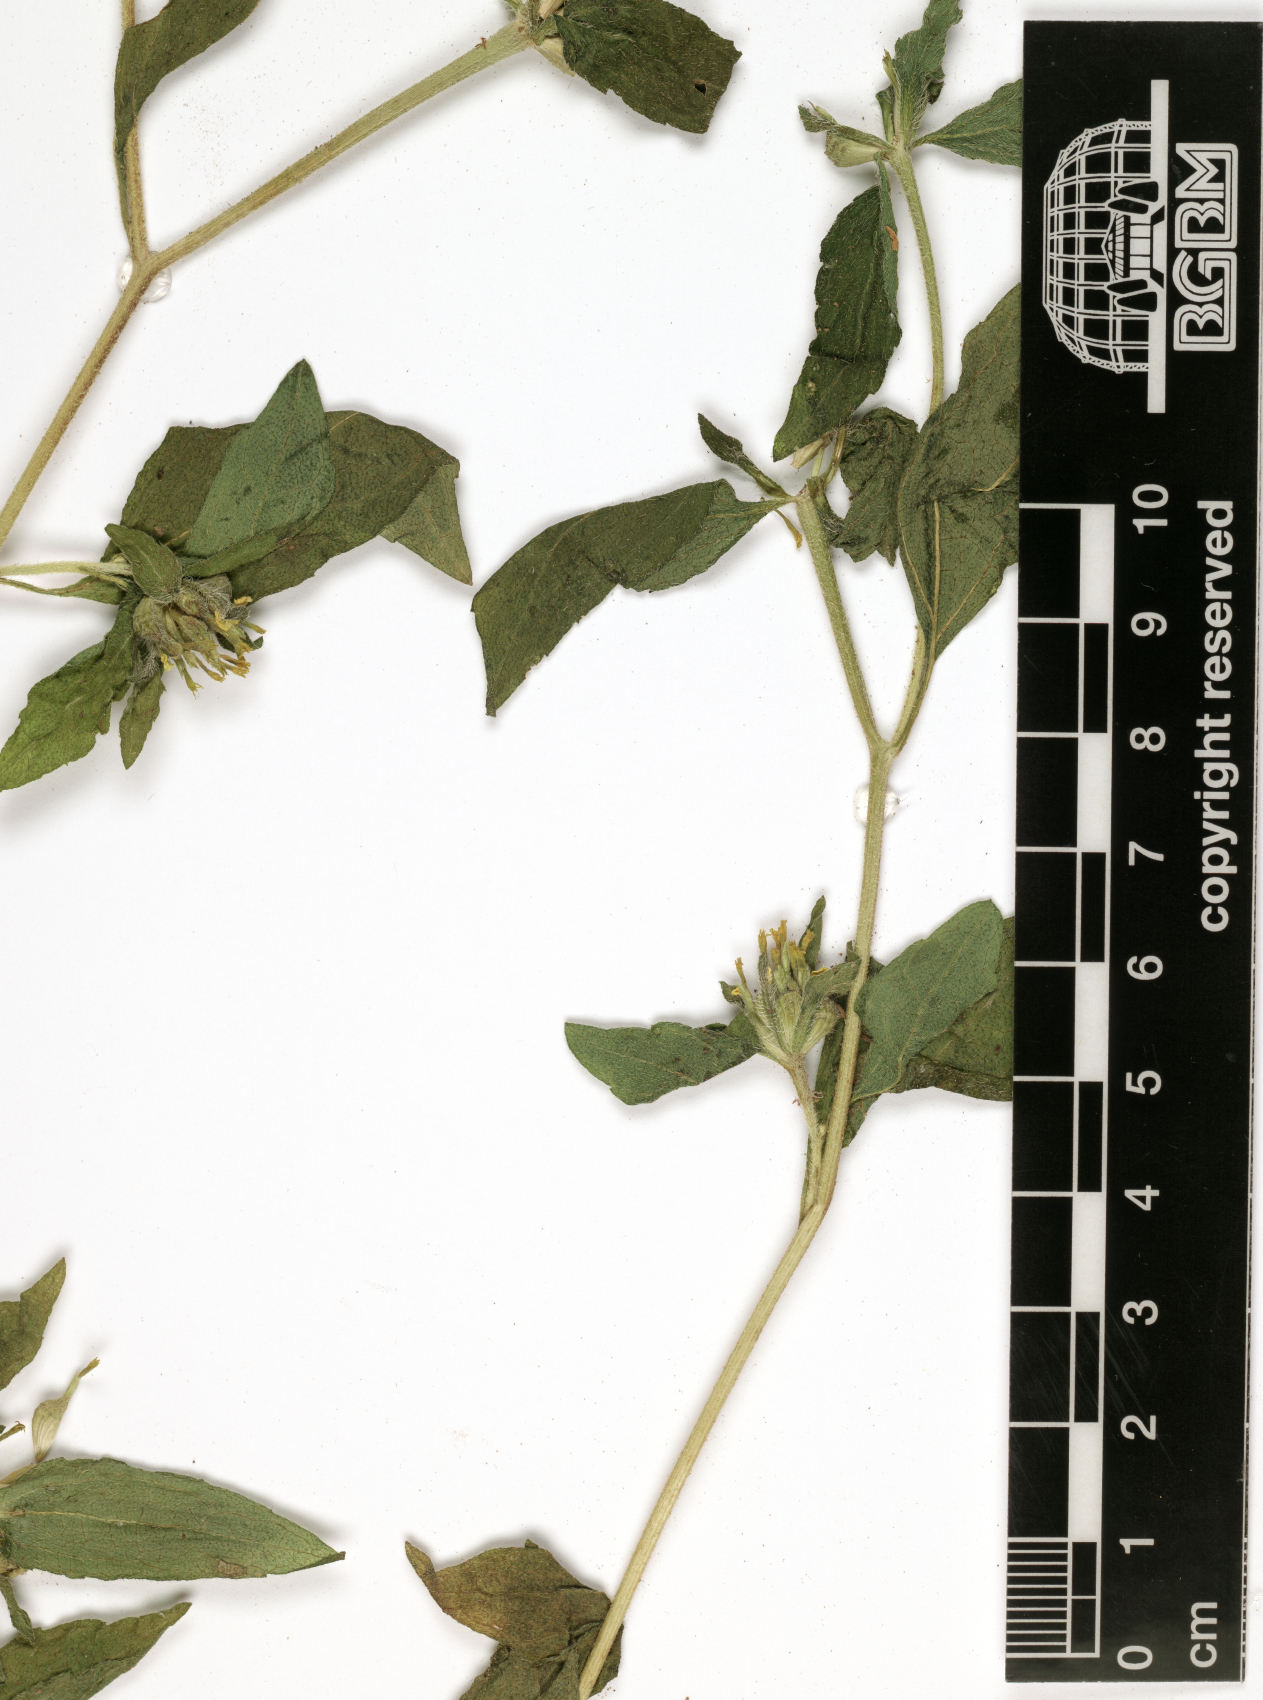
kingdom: Plantae
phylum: Tracheophyta
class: Magnoliopsida
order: Asterales
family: Asteraceae
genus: Sclerocarpus
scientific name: Sclerocarpus africanus
